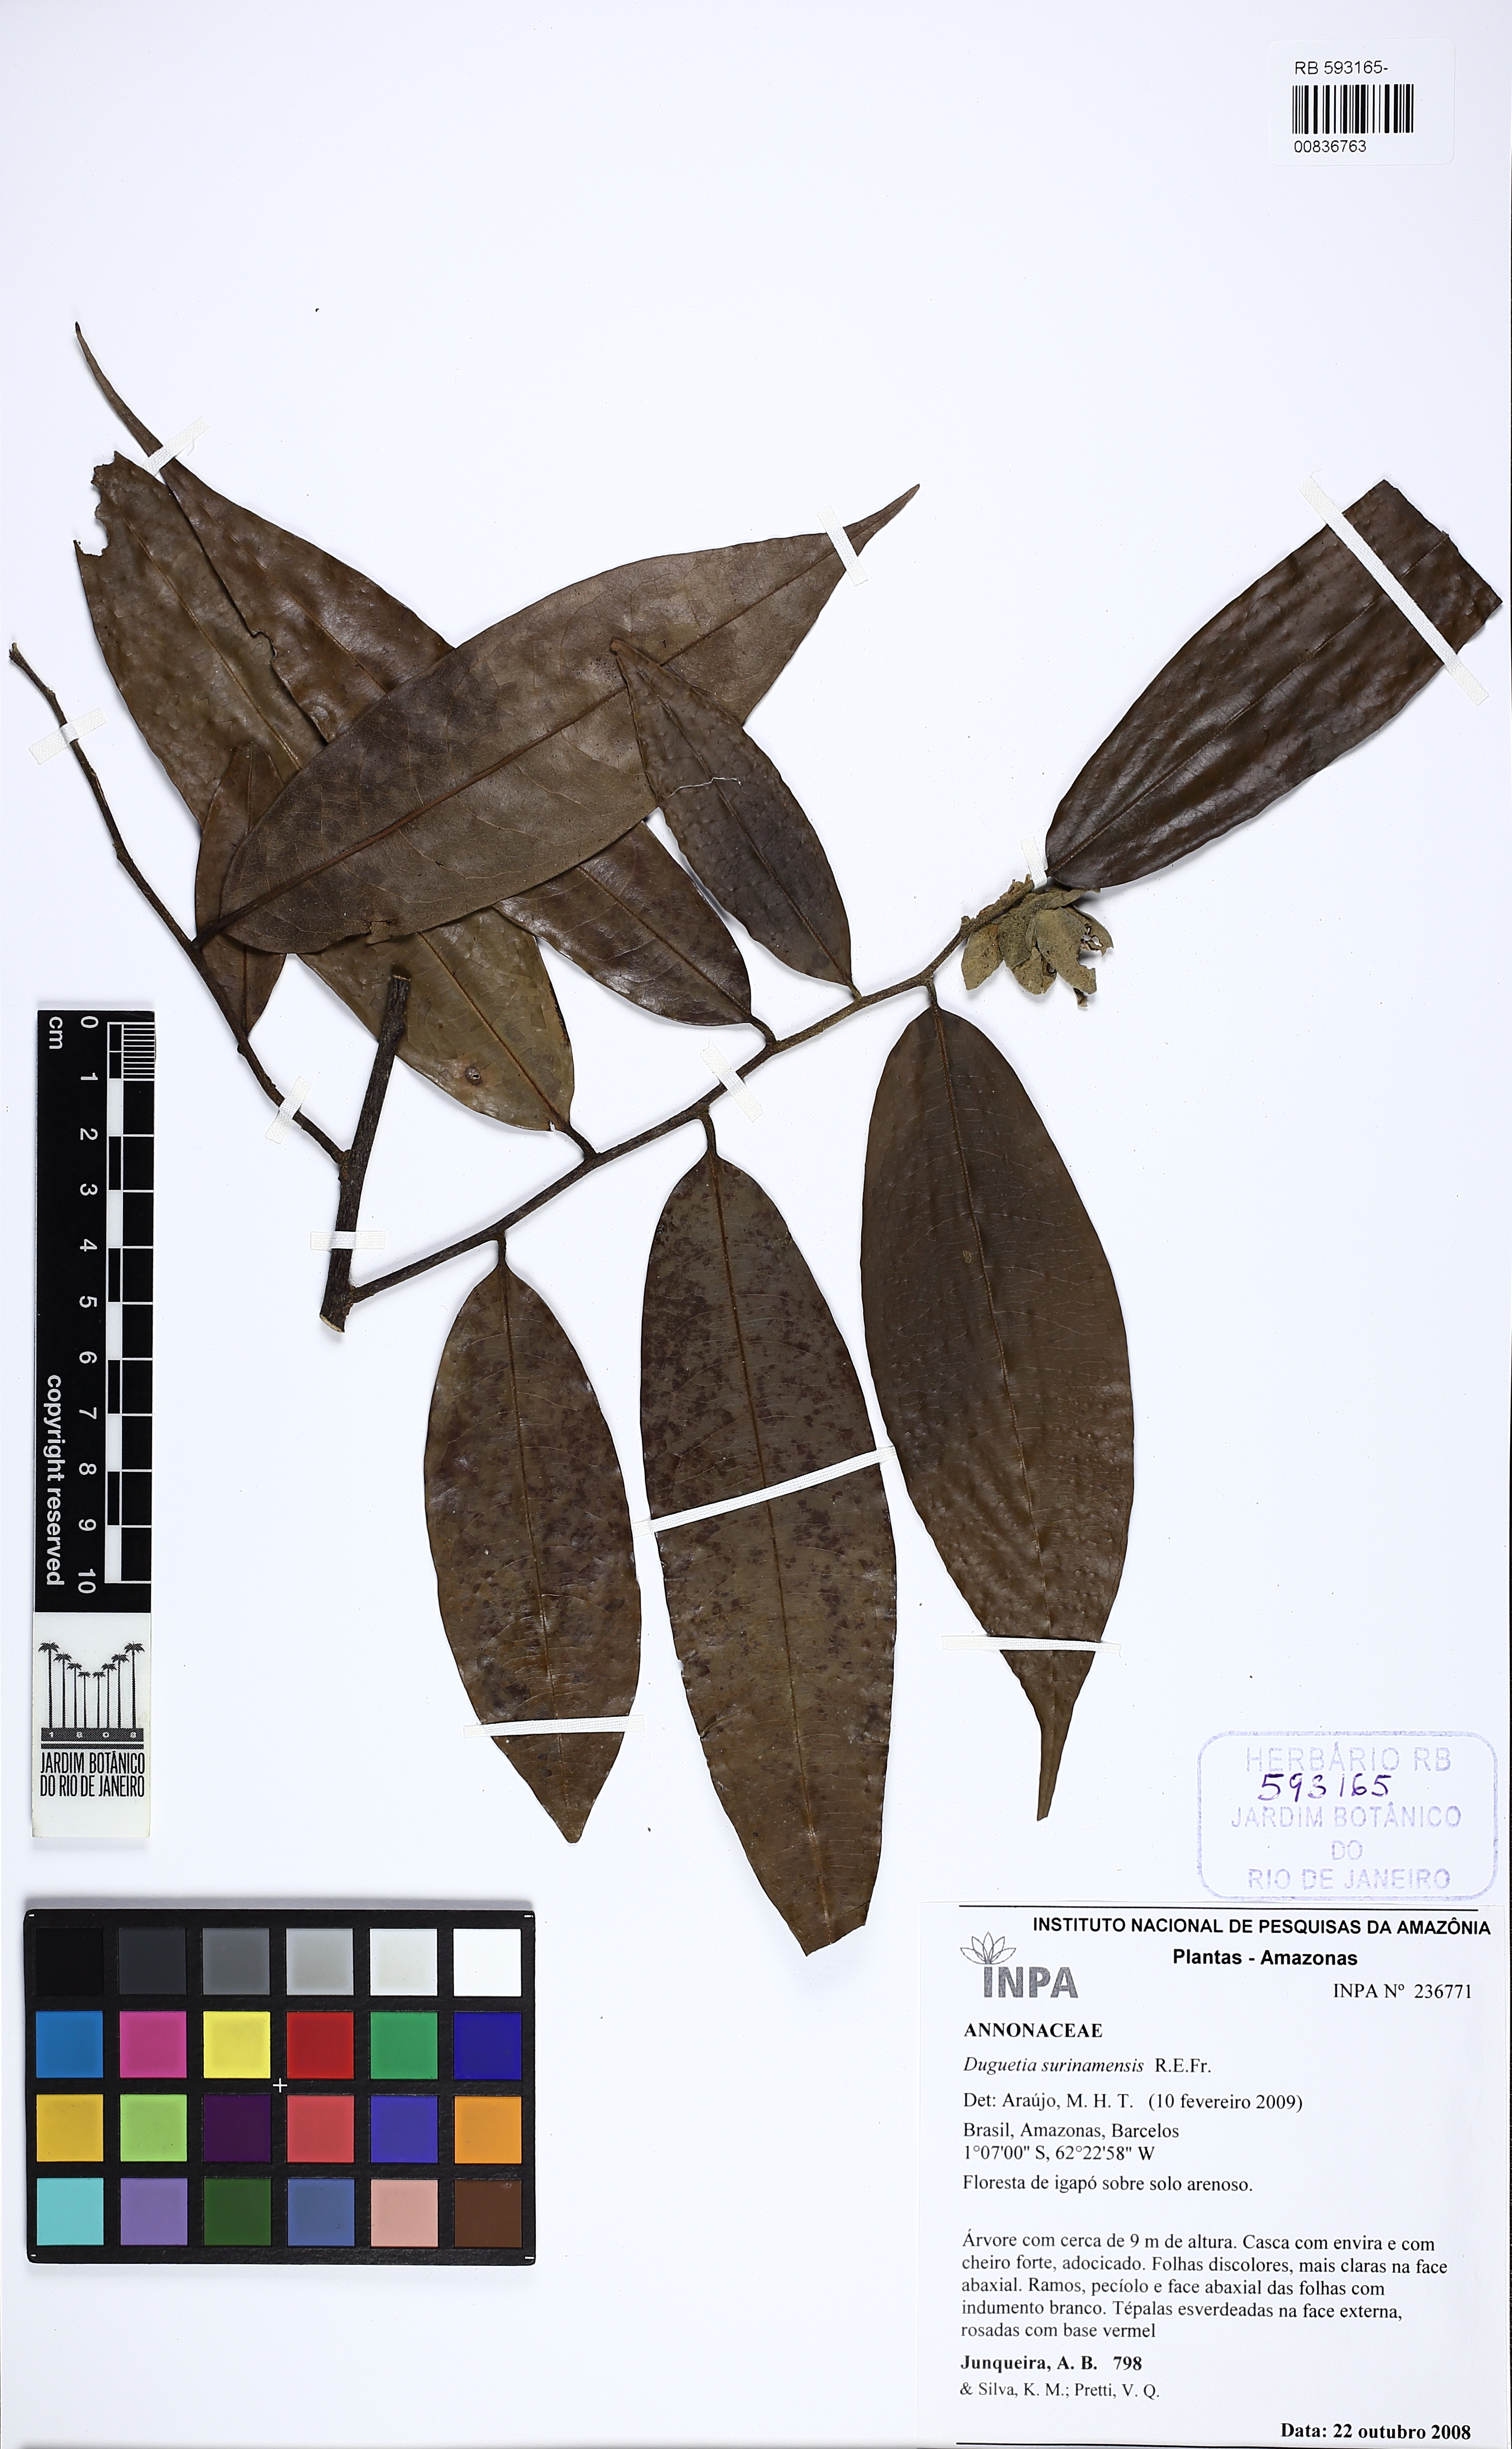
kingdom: Plantae
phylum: Tracheophyta
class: Magnoliopsida
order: Magnoliales
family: Annonaceae
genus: Duguetia
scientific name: Duguetia surinamensis
